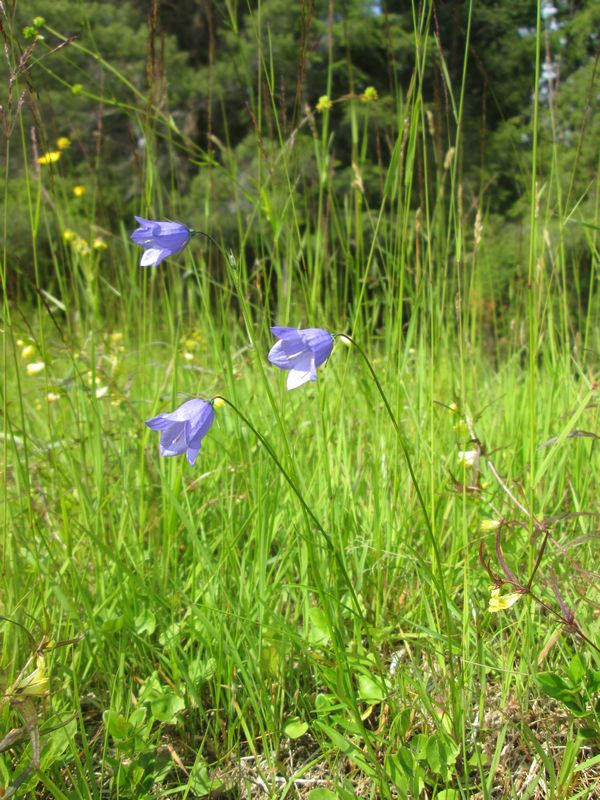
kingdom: Plantae
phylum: Tracheophyta
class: Magnoliopsida
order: Asterales
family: Campanulaceae
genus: Campanula
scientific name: Campanula rotundifolia
